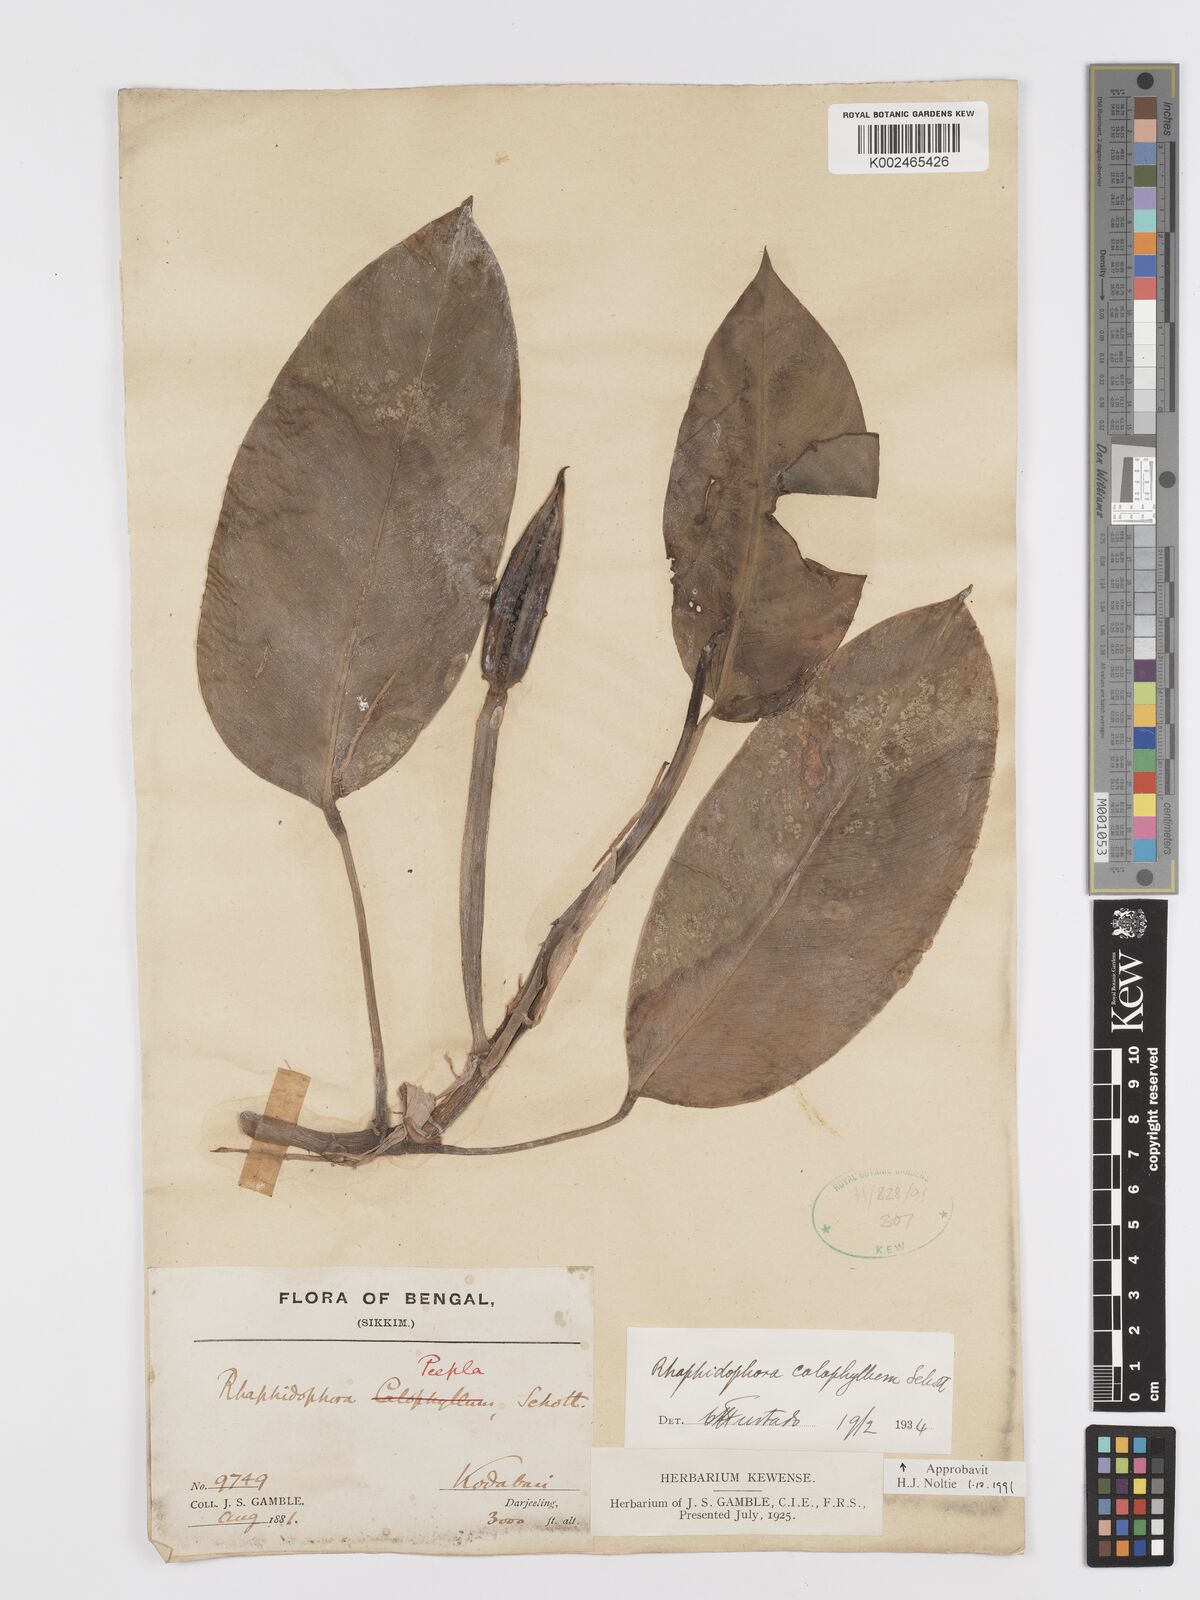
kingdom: Plantae
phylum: Tracheophyta
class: Liliopsida
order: Alismatales
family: Araceae
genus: Rhaphidophora
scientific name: Rhaphidophora calophylla
